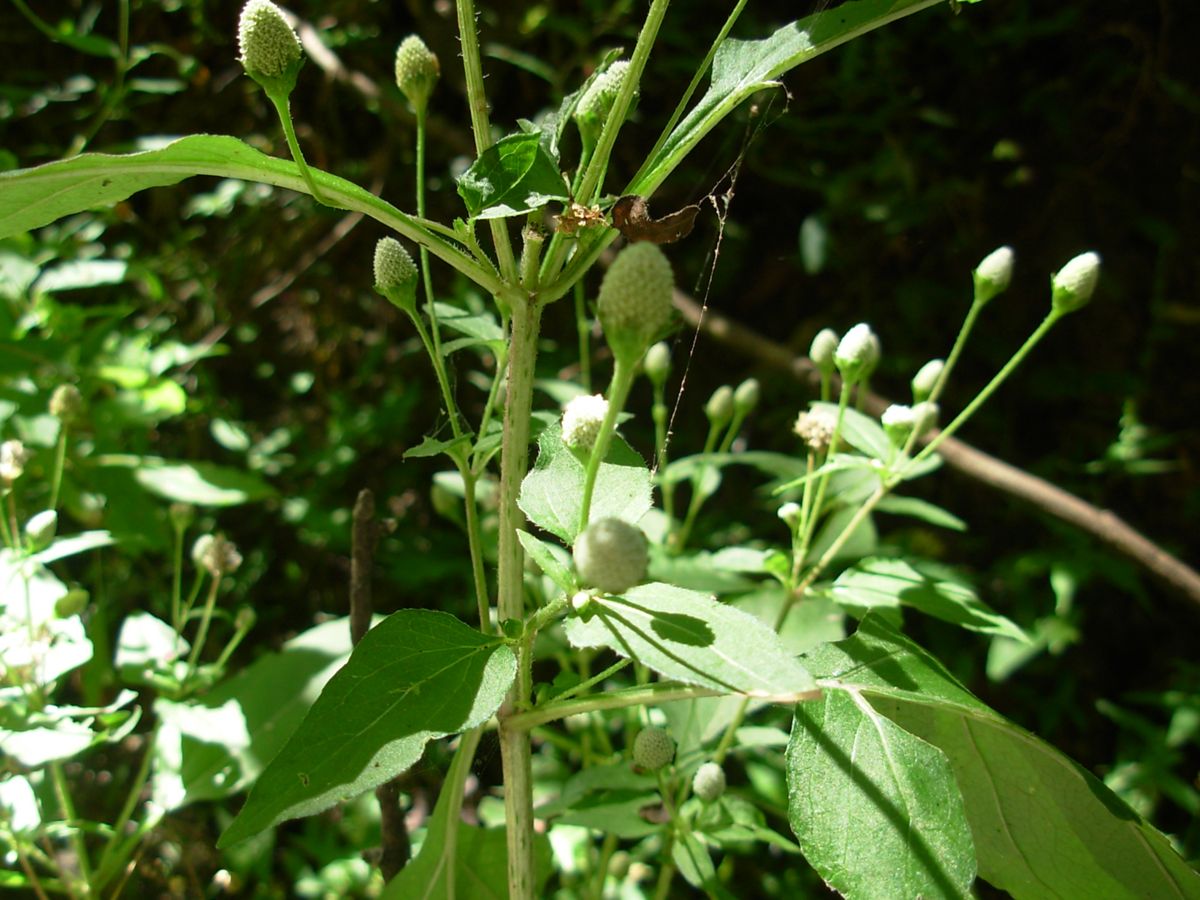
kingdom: Plantae
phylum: Tracheophyta
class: Magnoliopsida
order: Asterales
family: Asteraceae
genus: Acmella
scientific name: Acmella radicans
